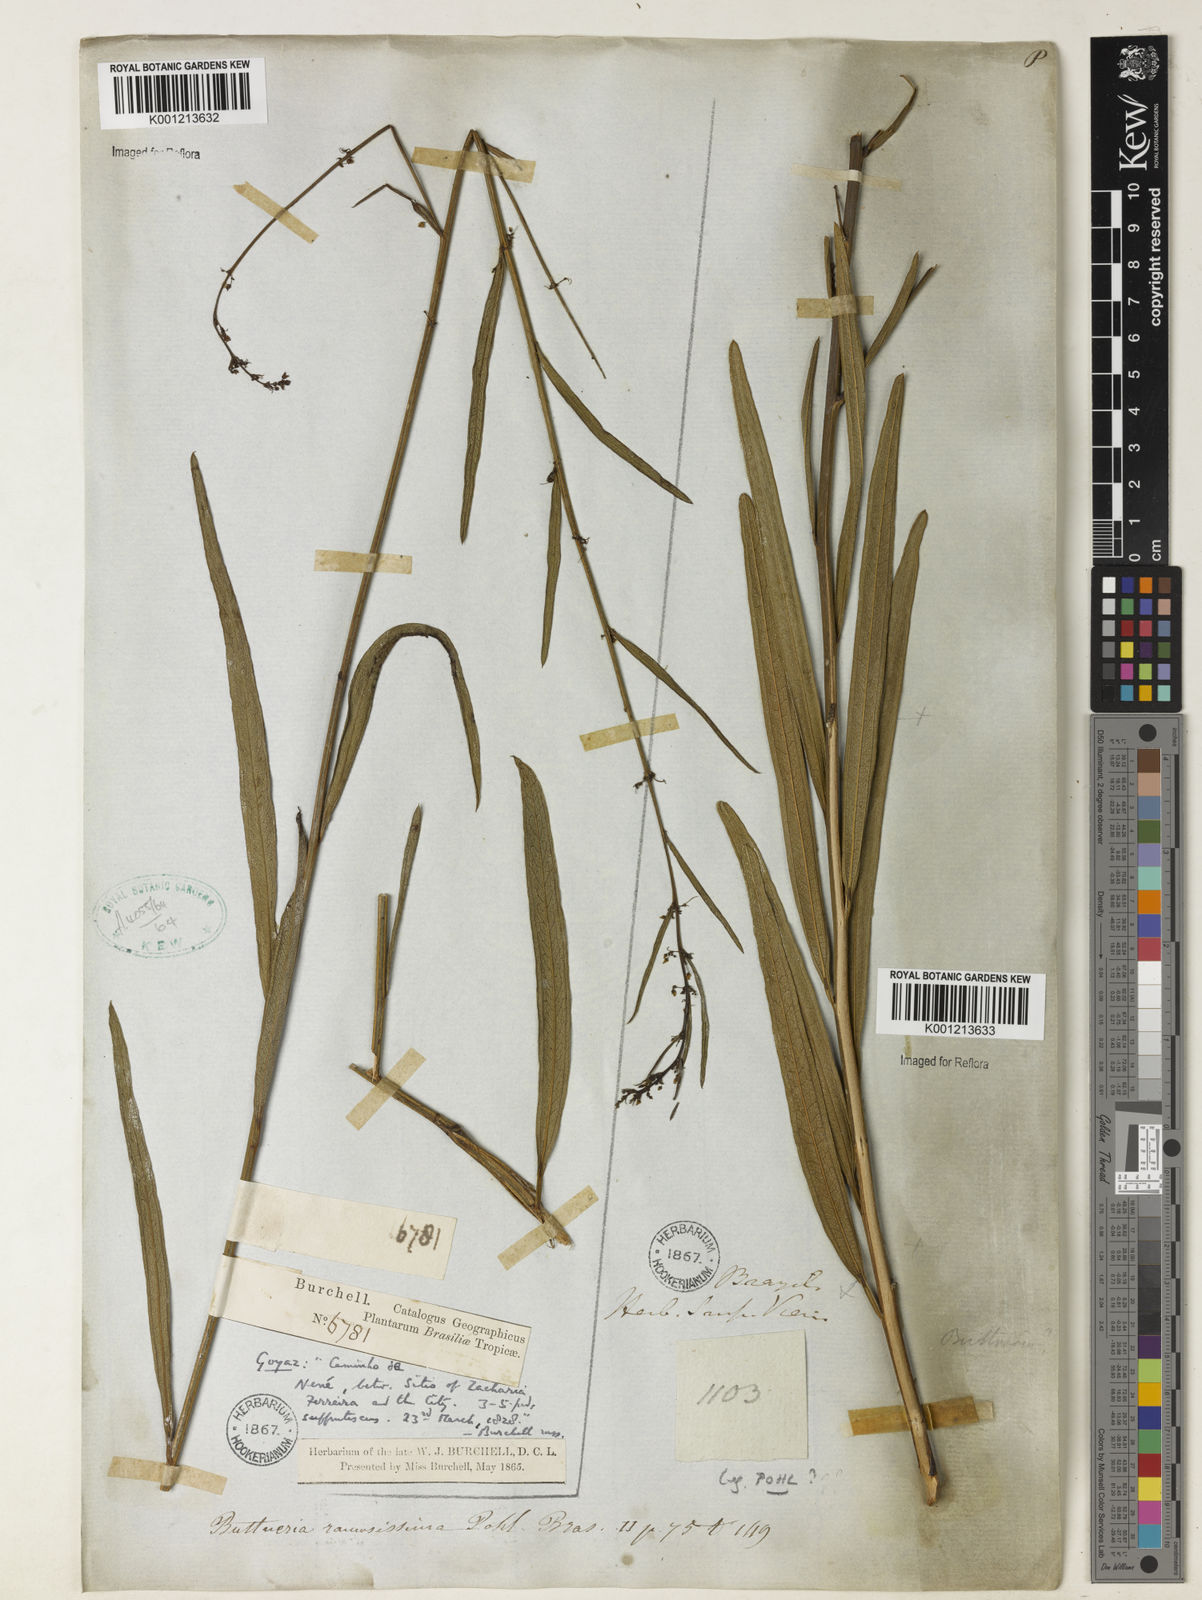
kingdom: Plantae
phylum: Tracheophyta
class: Magnoliopsida
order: Malvales
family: Malvaceae
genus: Byttneria
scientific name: Byttneria ramosissima
